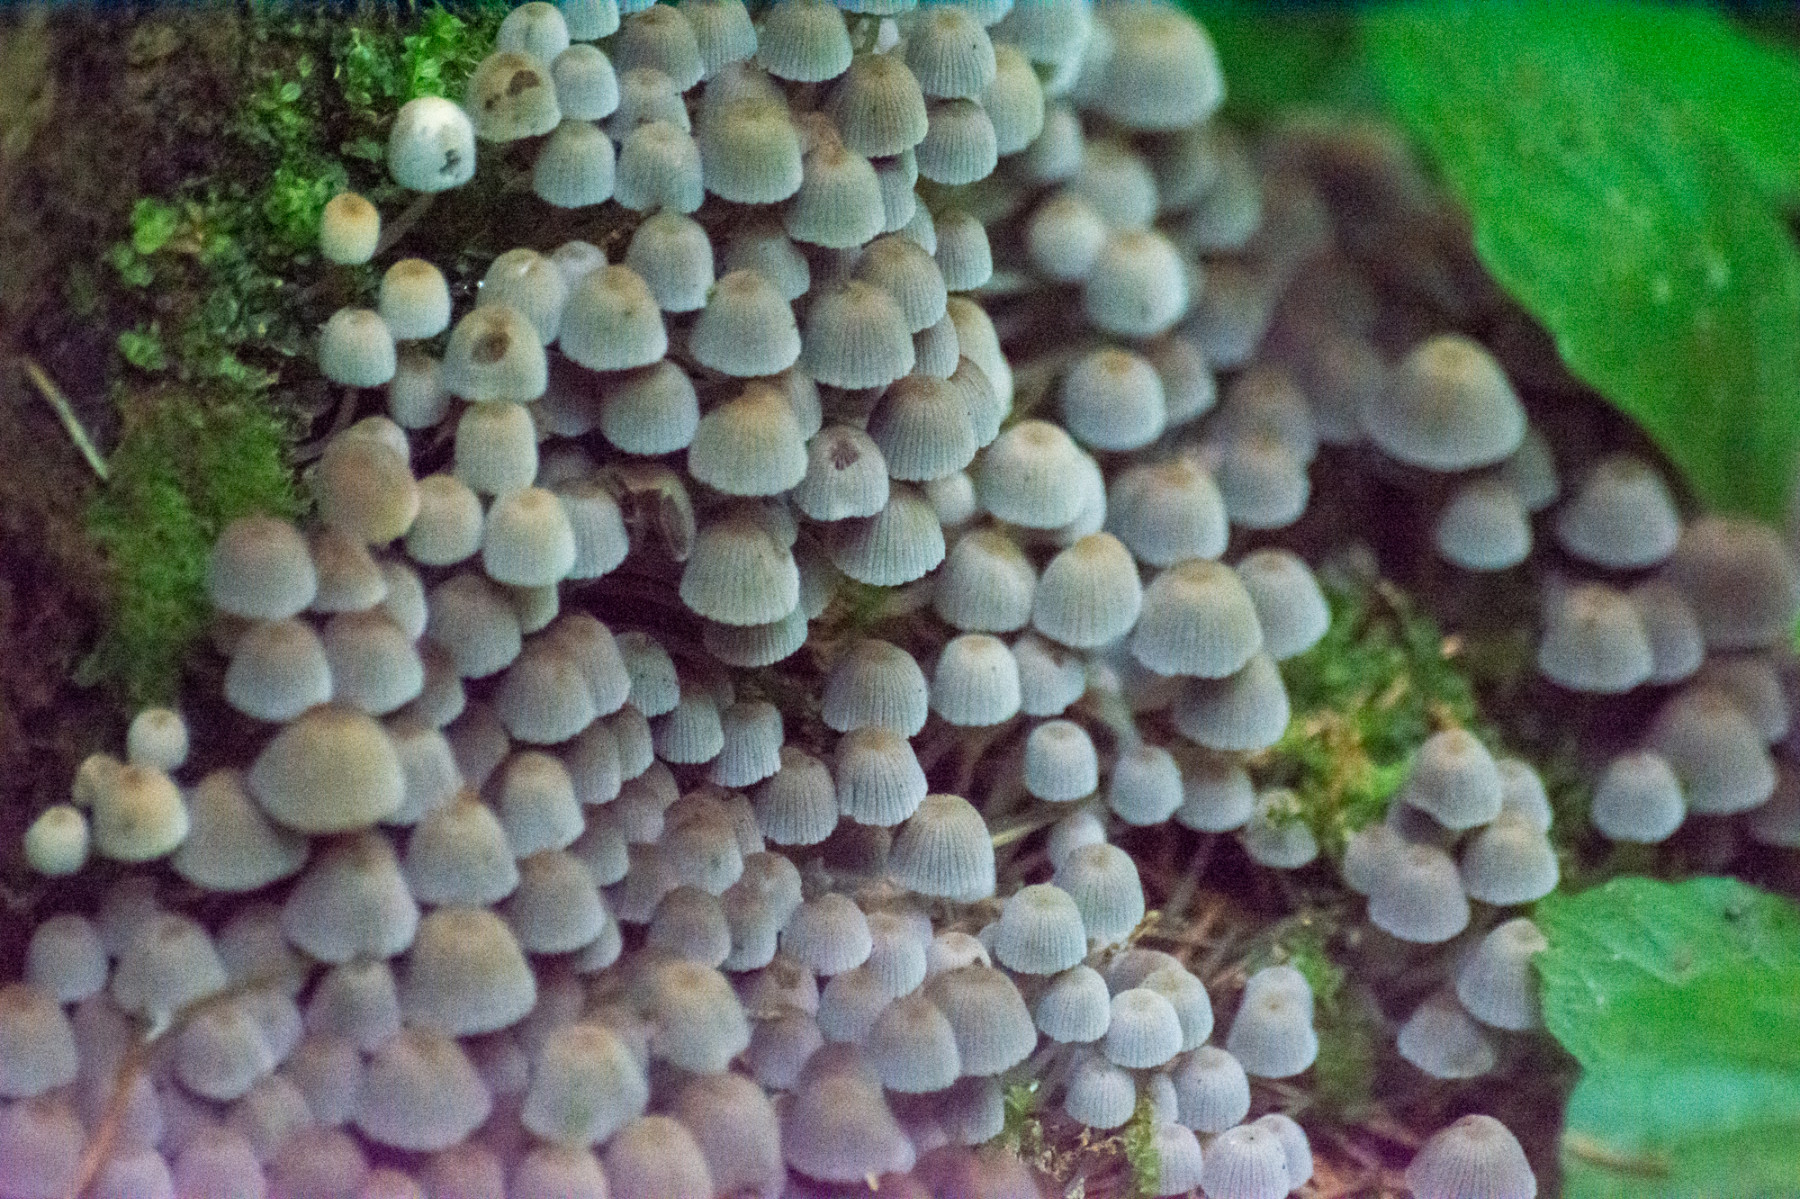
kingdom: Fungi
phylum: Basidiomycota
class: Agaricomycetes
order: Agaricales
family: Psathyrellaceae
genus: Coprinellus
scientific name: Coprinellus disseminatus
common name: bredsået blækhat
